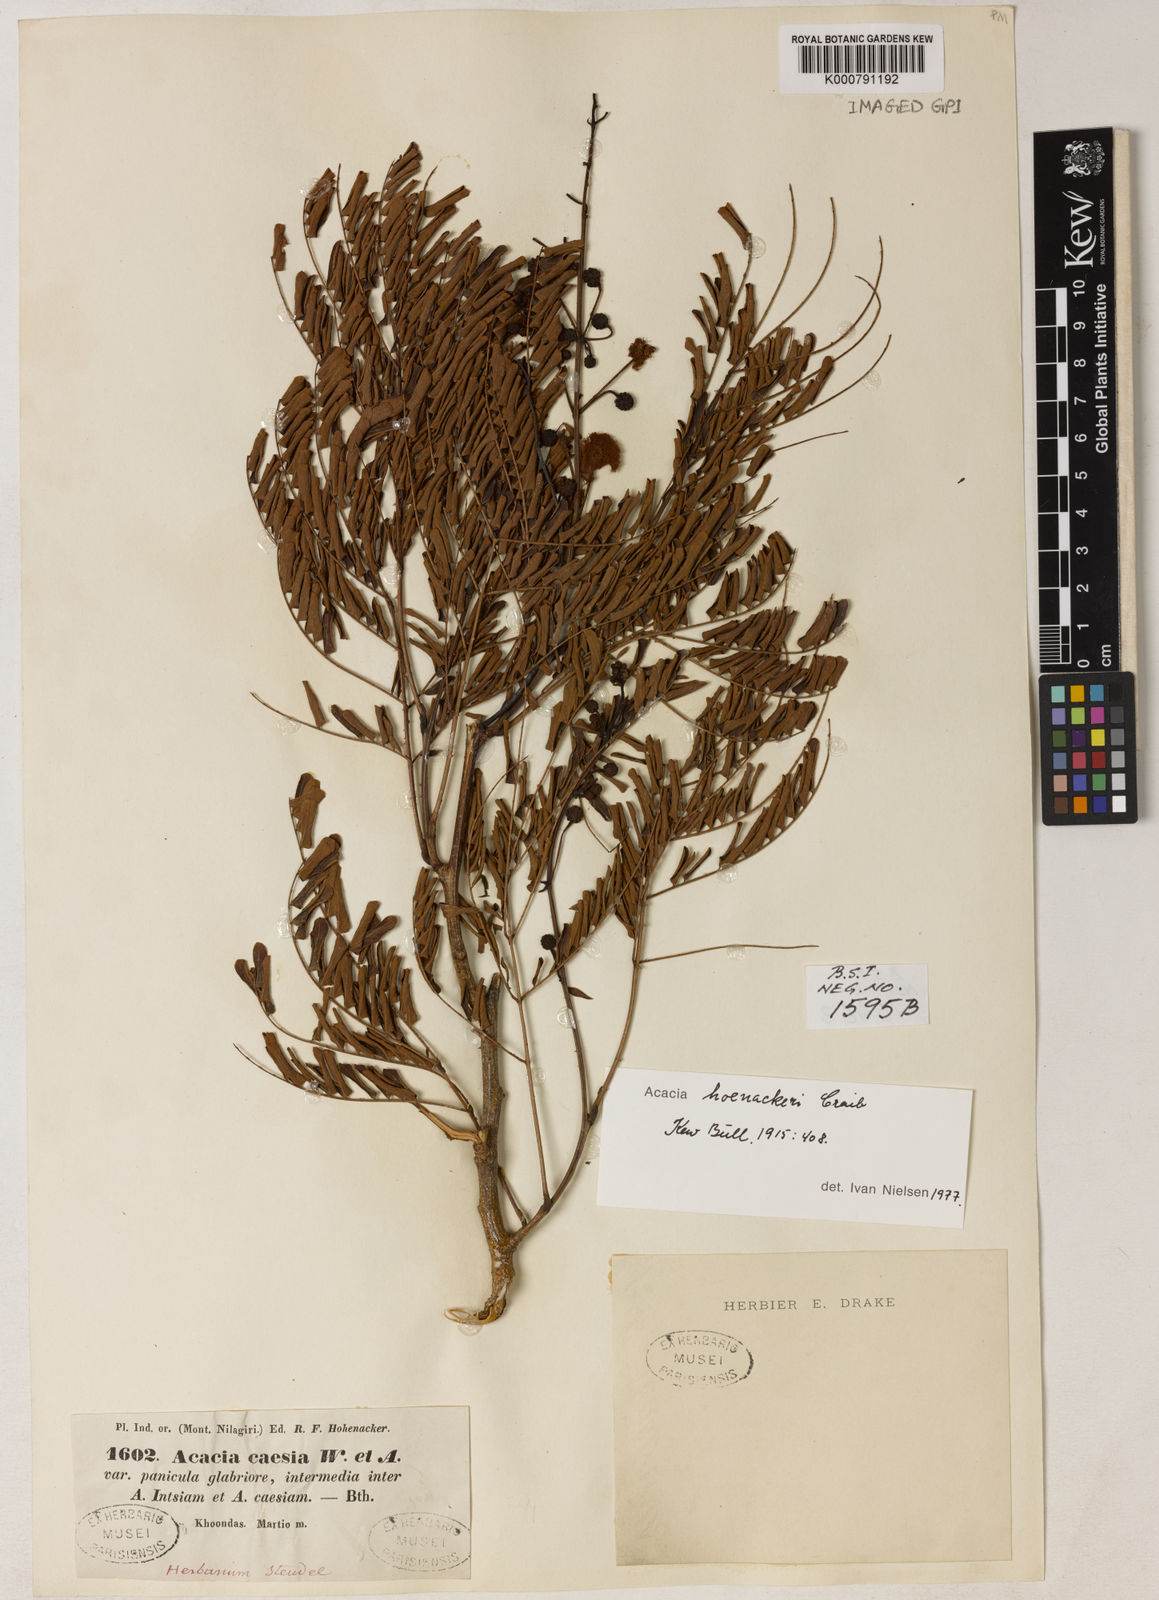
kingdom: Plantae
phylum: Tracheophyta
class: Magnoliopsida
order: Fabales
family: Fabaceae
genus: Senegalia
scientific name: Senegalia hohenackeri
